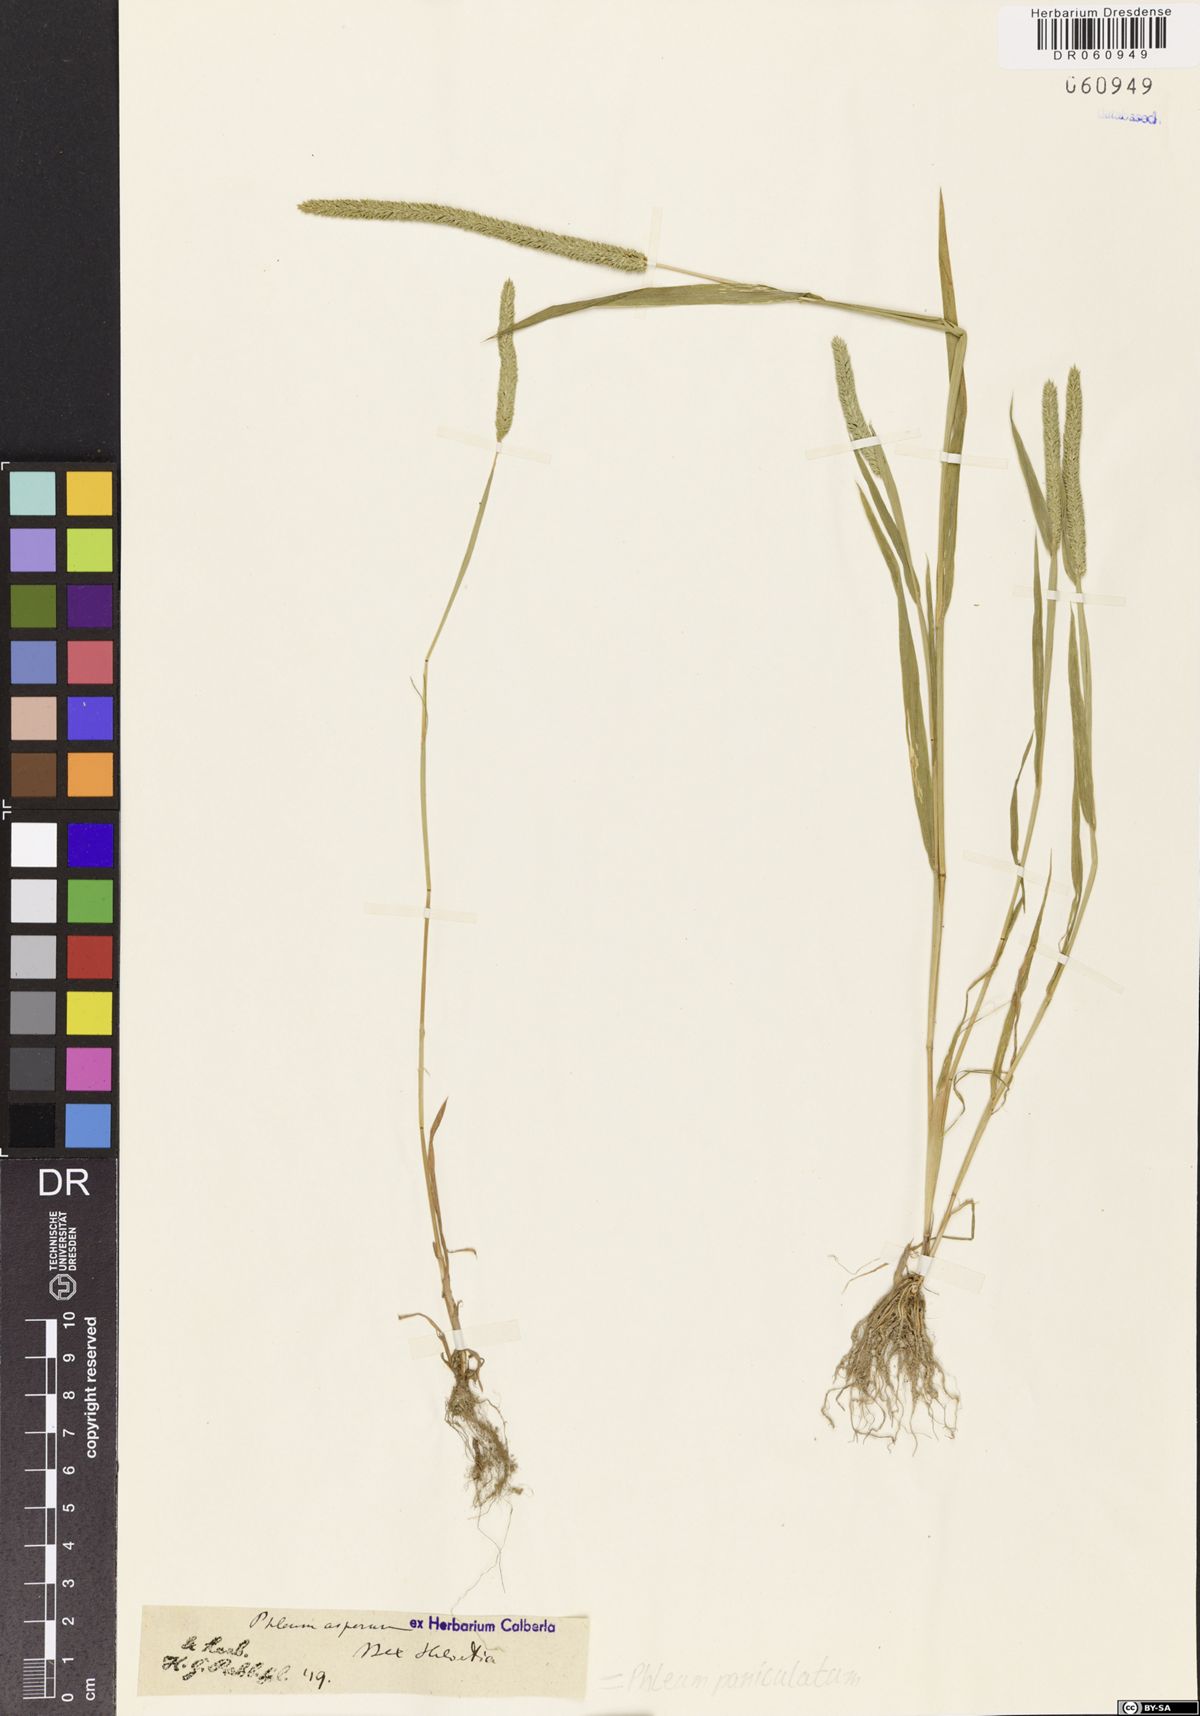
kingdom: Plantae
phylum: Tracheophyta
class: Liliopsida
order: Poales
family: Poaceae
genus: Phleum
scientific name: Phleum paniculatum
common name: British timothy
